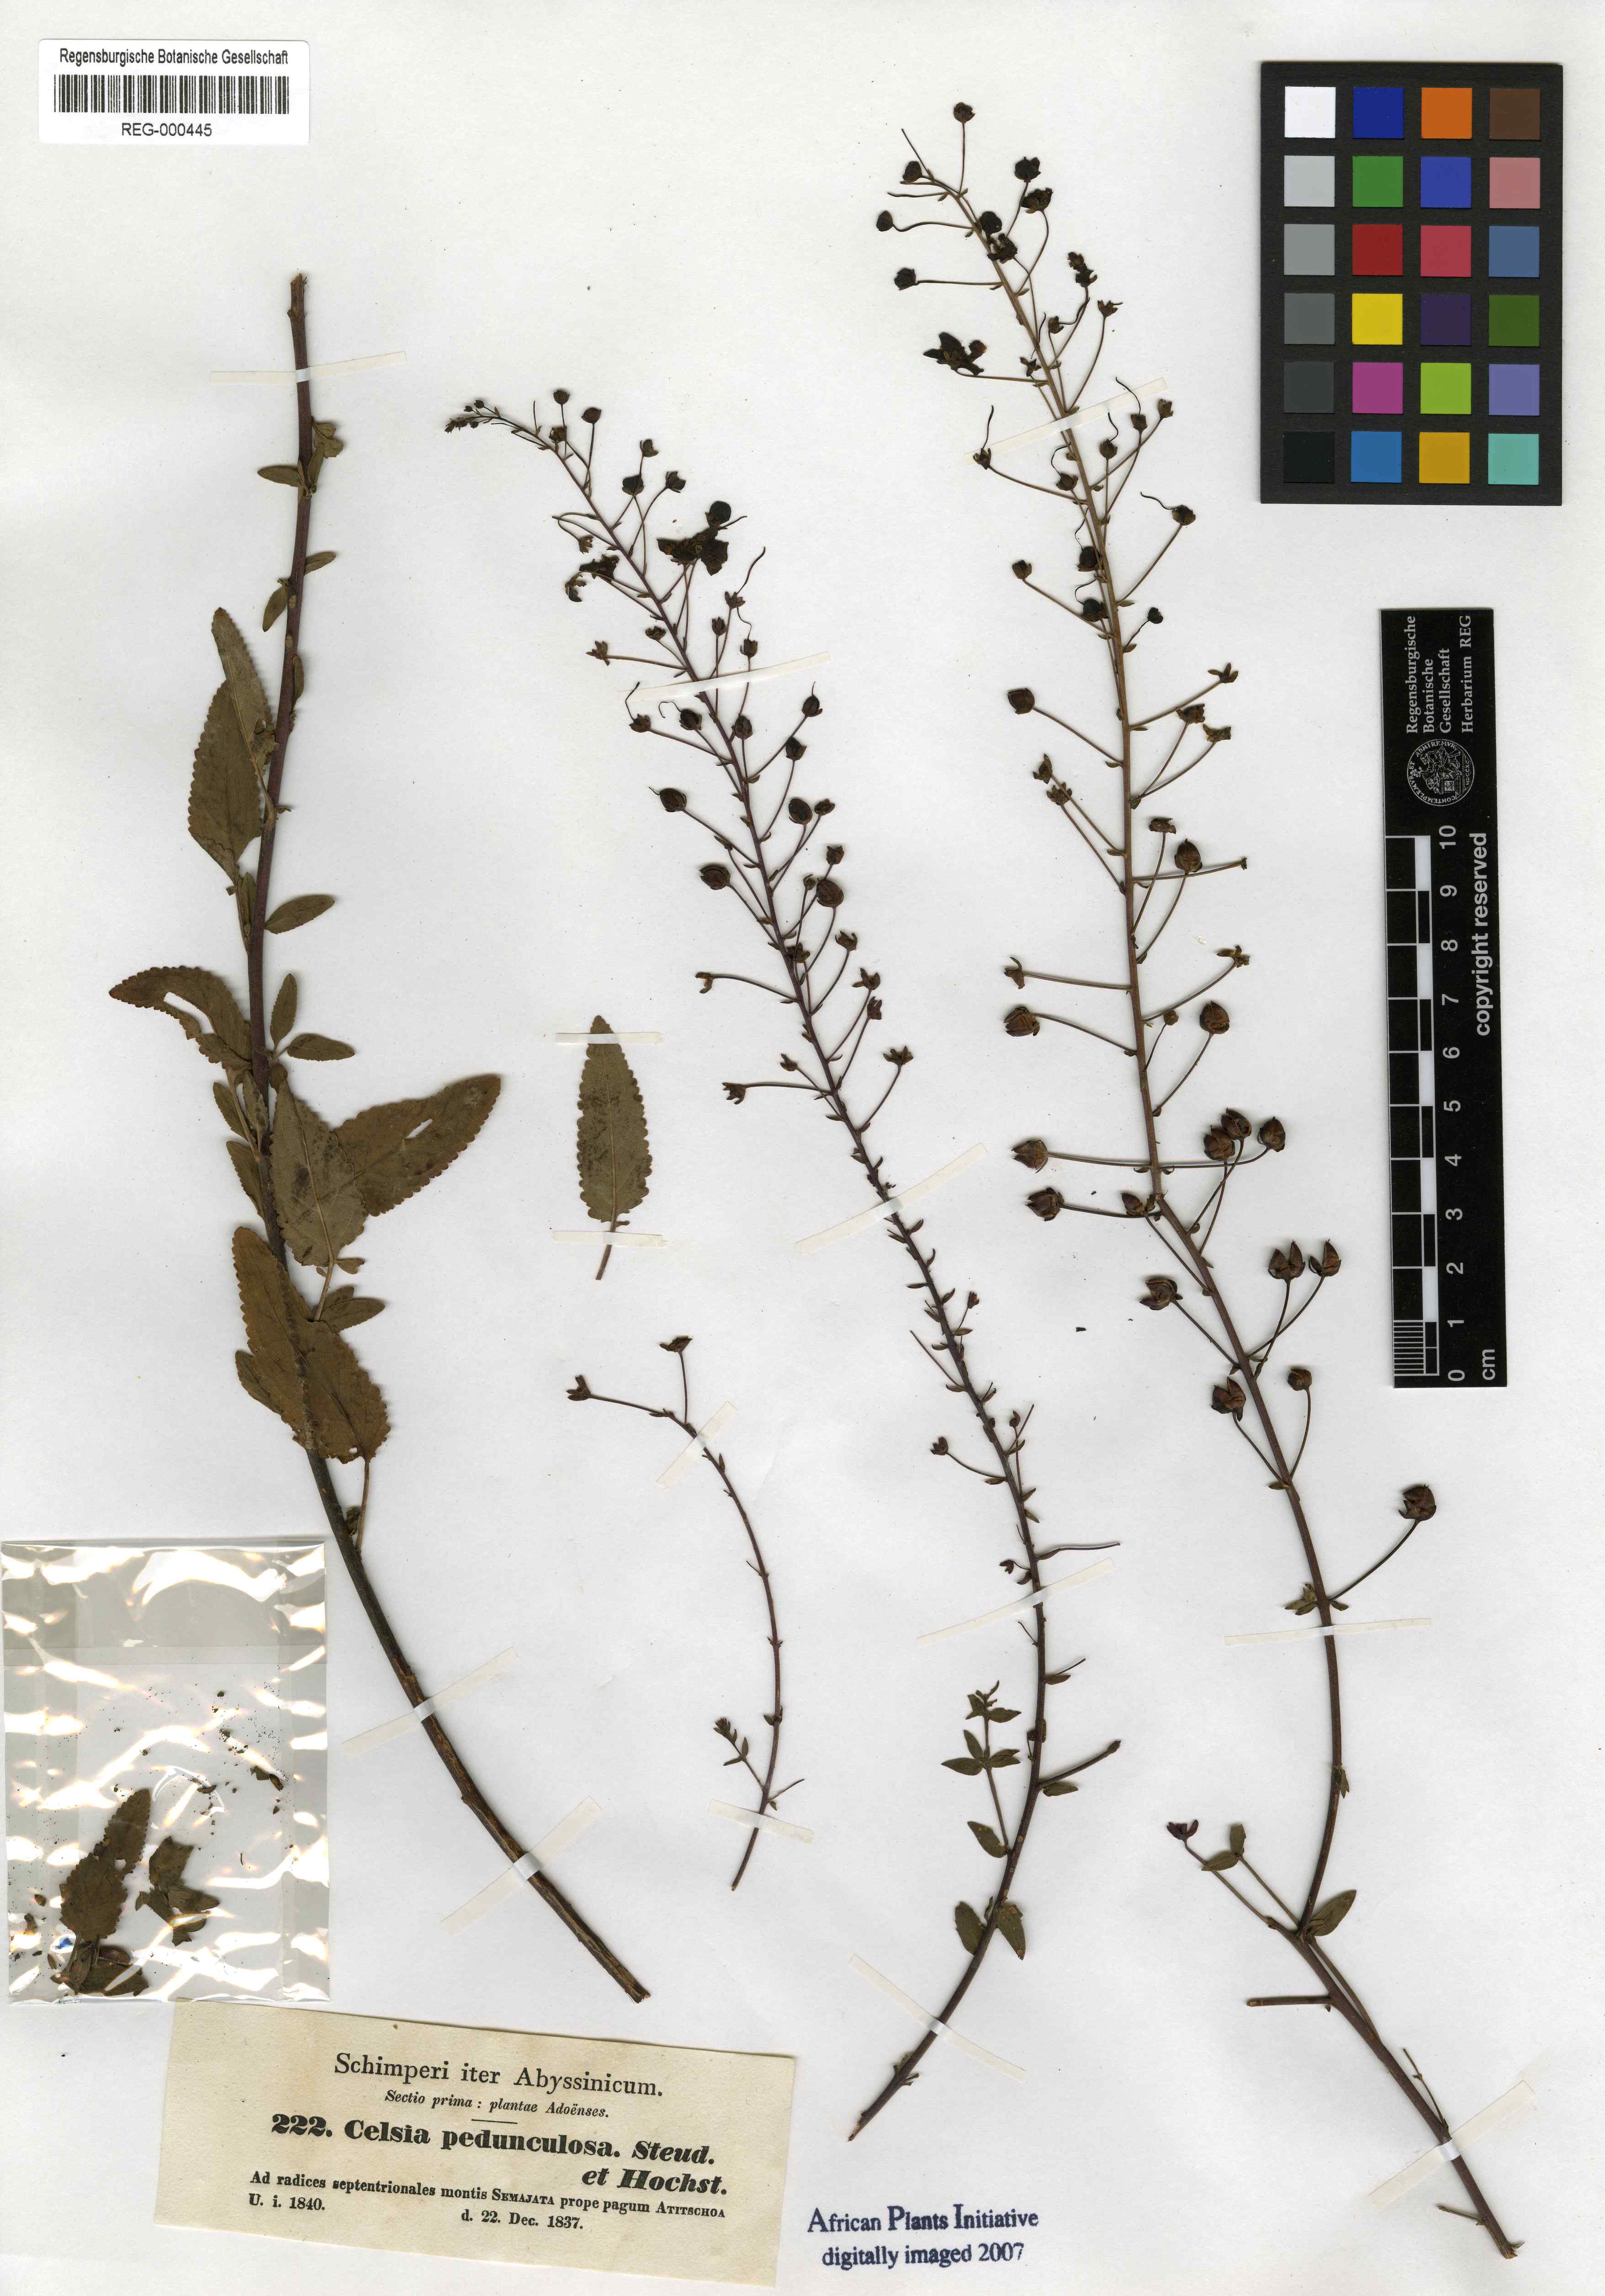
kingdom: Plantae
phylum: Tracheophyta
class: Magnoliopsida
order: Lamiales
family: Scrophulariaceae
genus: Verbascum
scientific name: Verbascum pedunculosum
